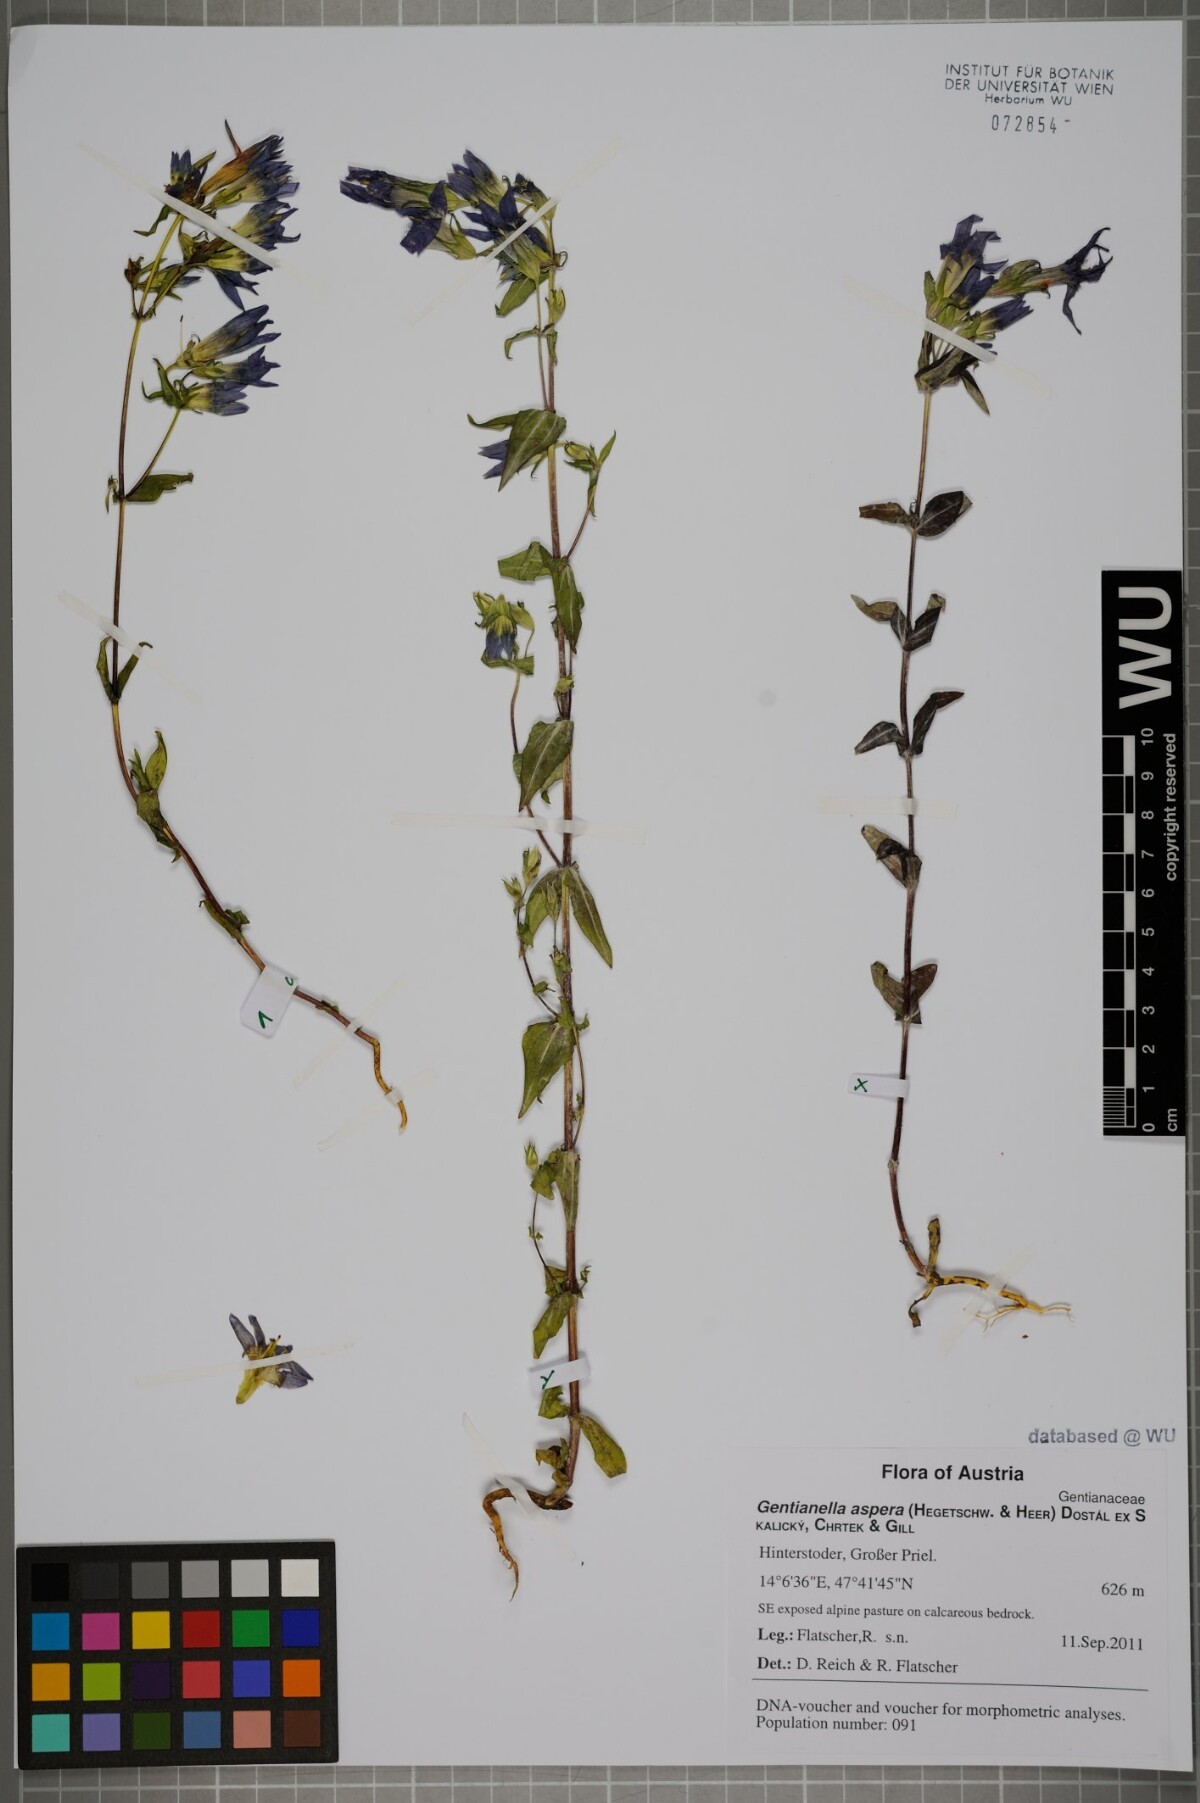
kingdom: Plantae
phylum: Tracheophyta
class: Magnoliopsida
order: Gentianales
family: Gentianaceae
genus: Gentianella
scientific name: Gentianella obtusifolia
